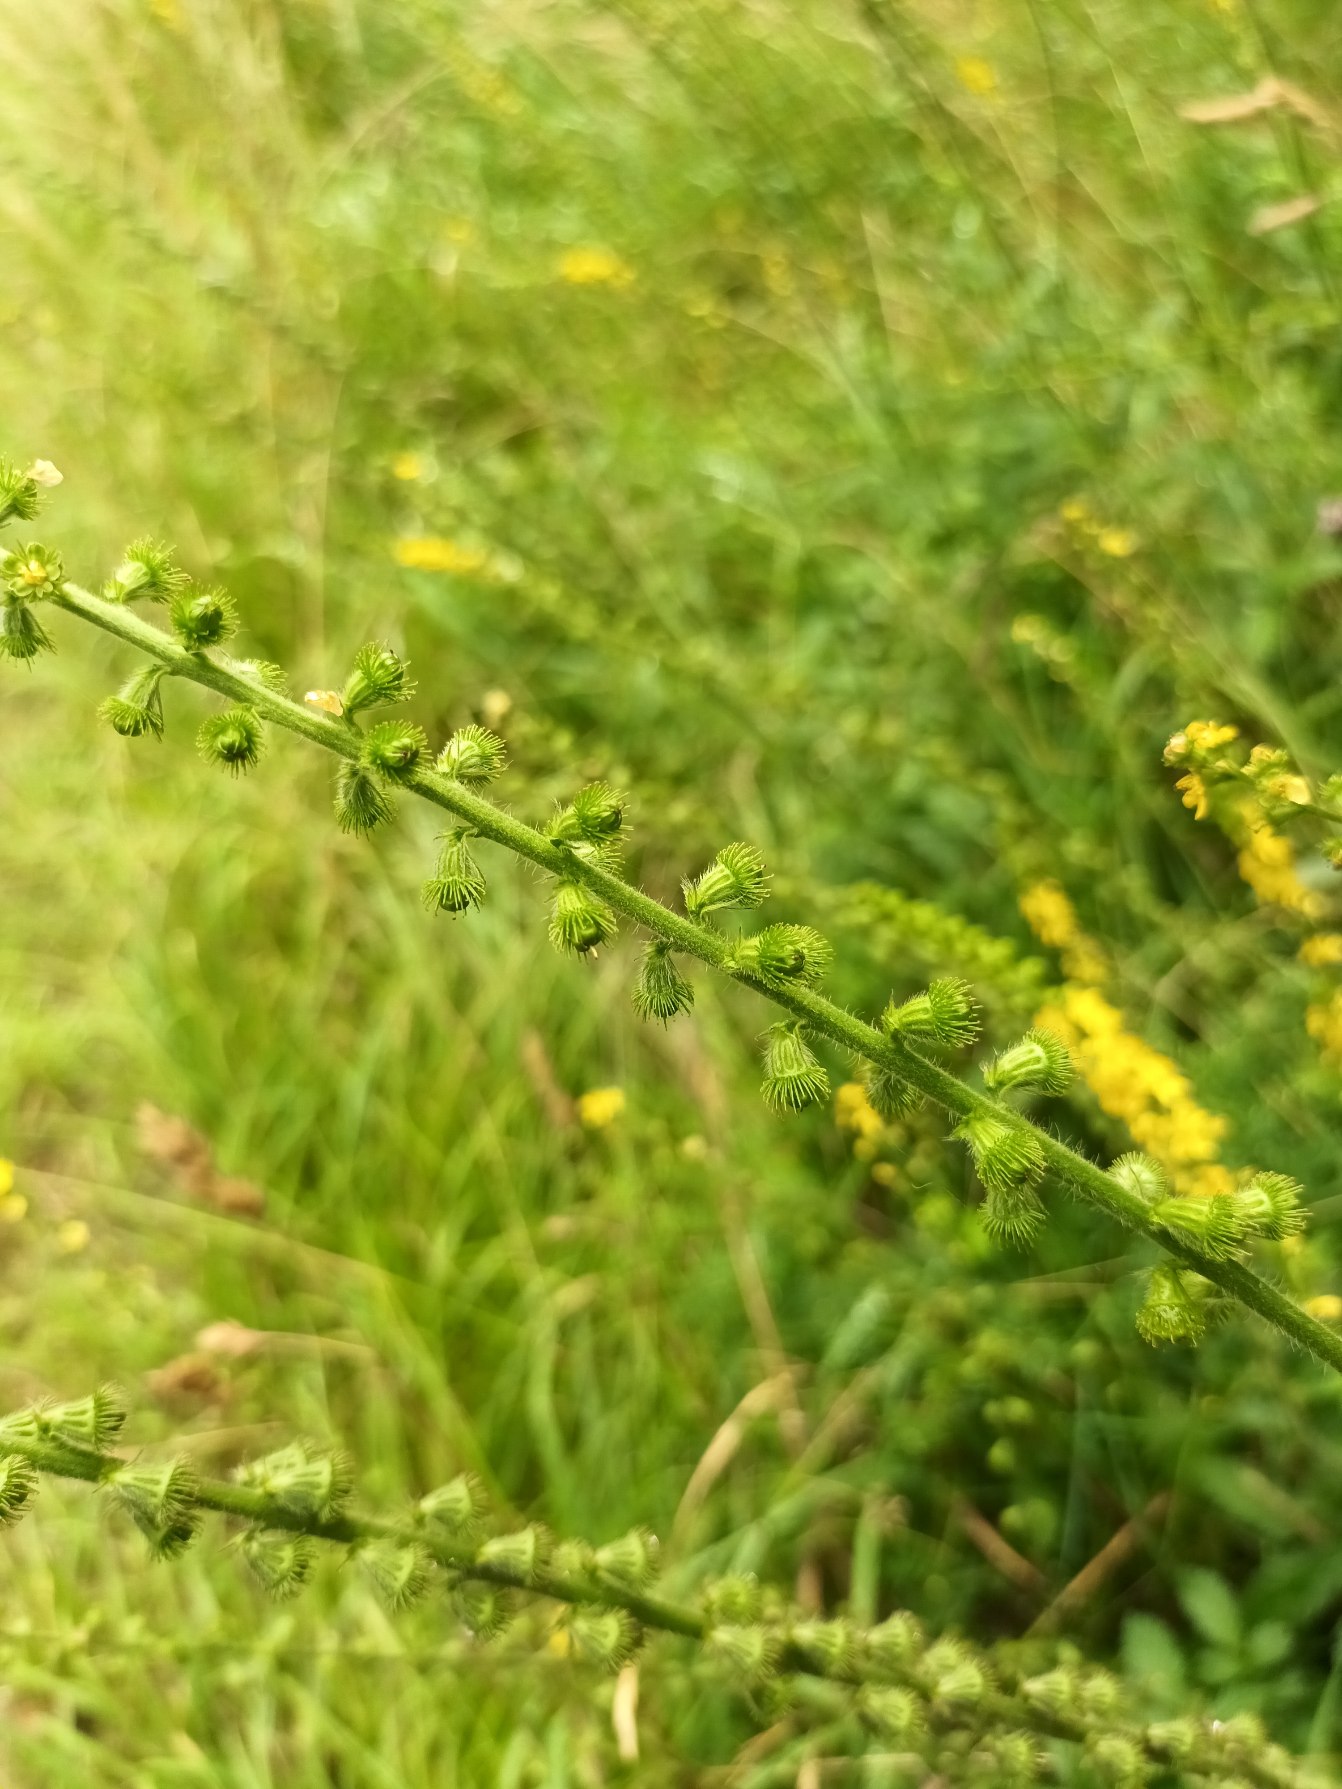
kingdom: Plantae
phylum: Tracheophyta
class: Magnoliopsida
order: Rosales
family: Rosaceae
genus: Agrimonia
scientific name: Agrimonia eupatoria
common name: Almindelig agermåne
